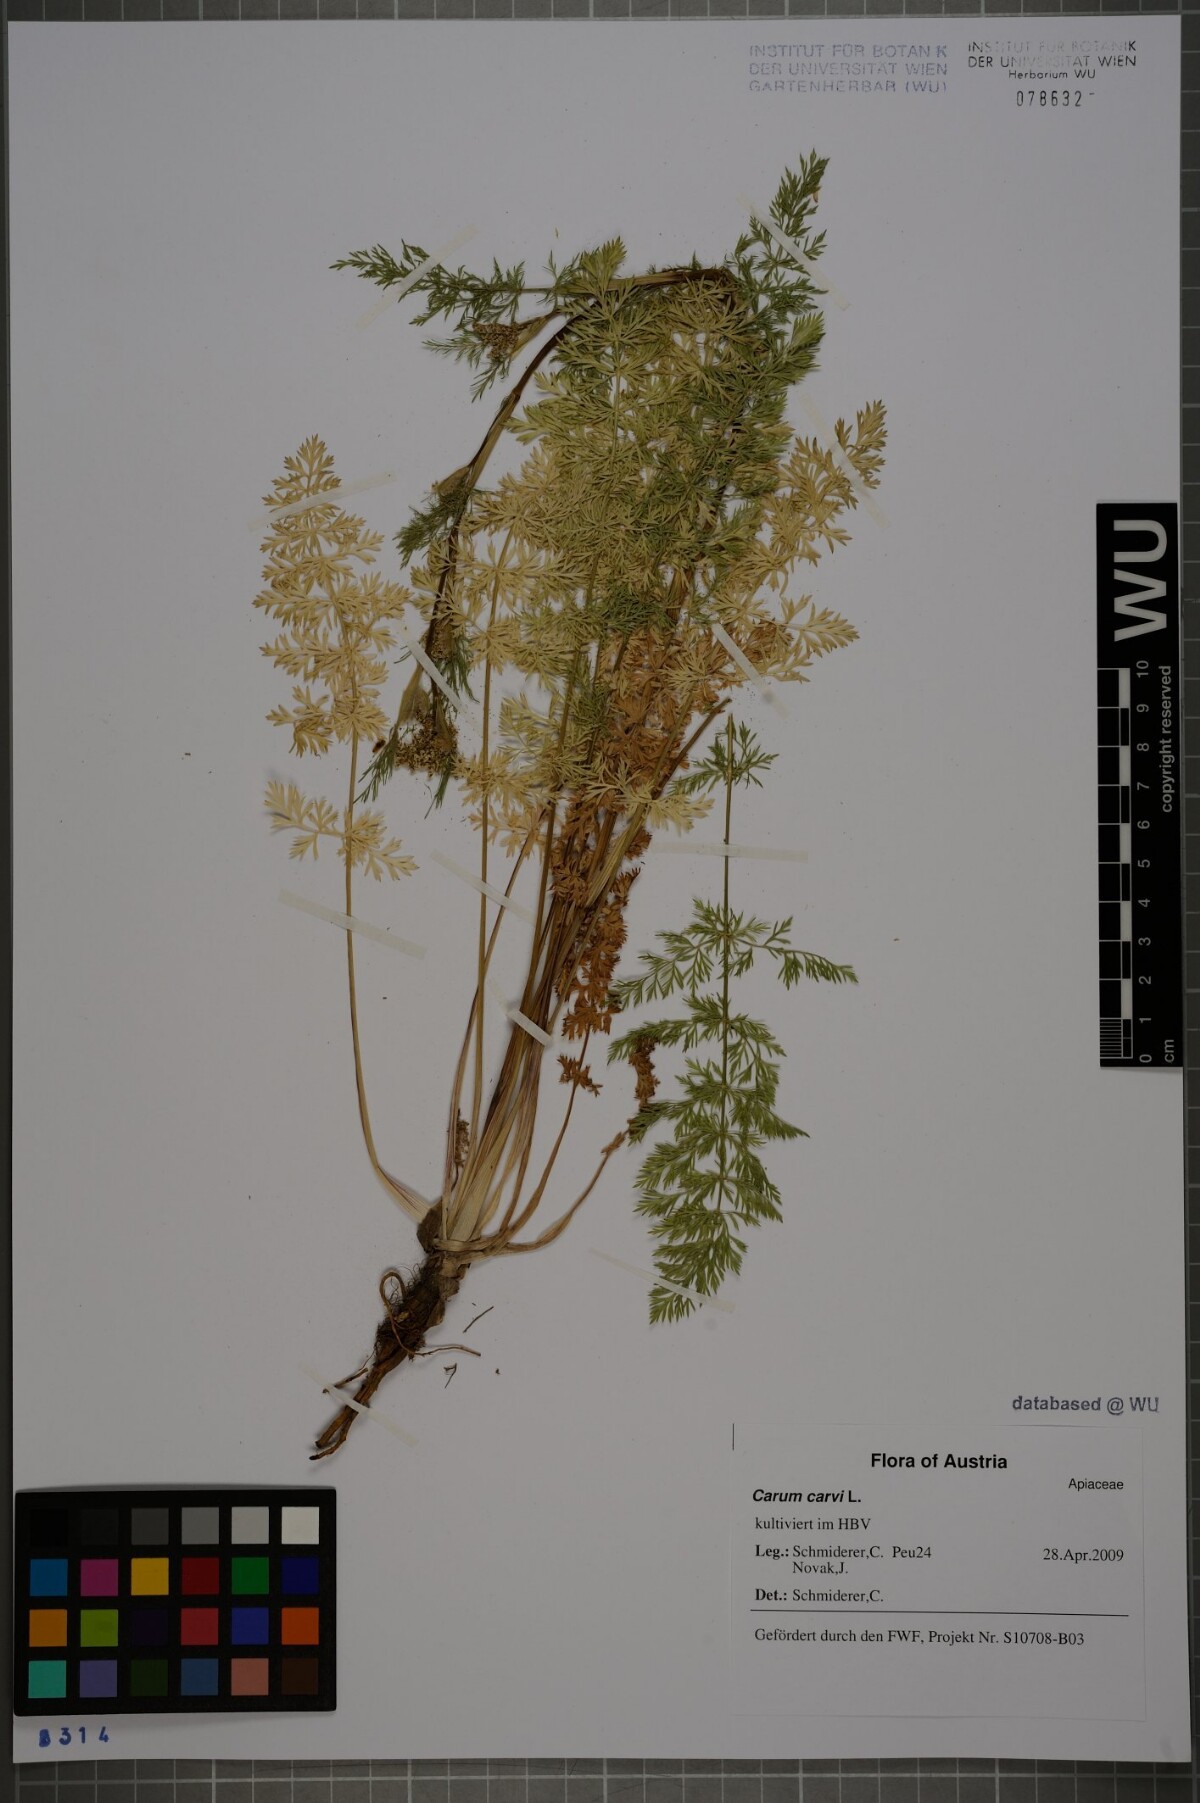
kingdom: Plantae
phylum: Tracheophyta
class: Magnoliopsida
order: Apiales
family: Apiaceae
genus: Carum
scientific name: Carum carvi
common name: Caraway
